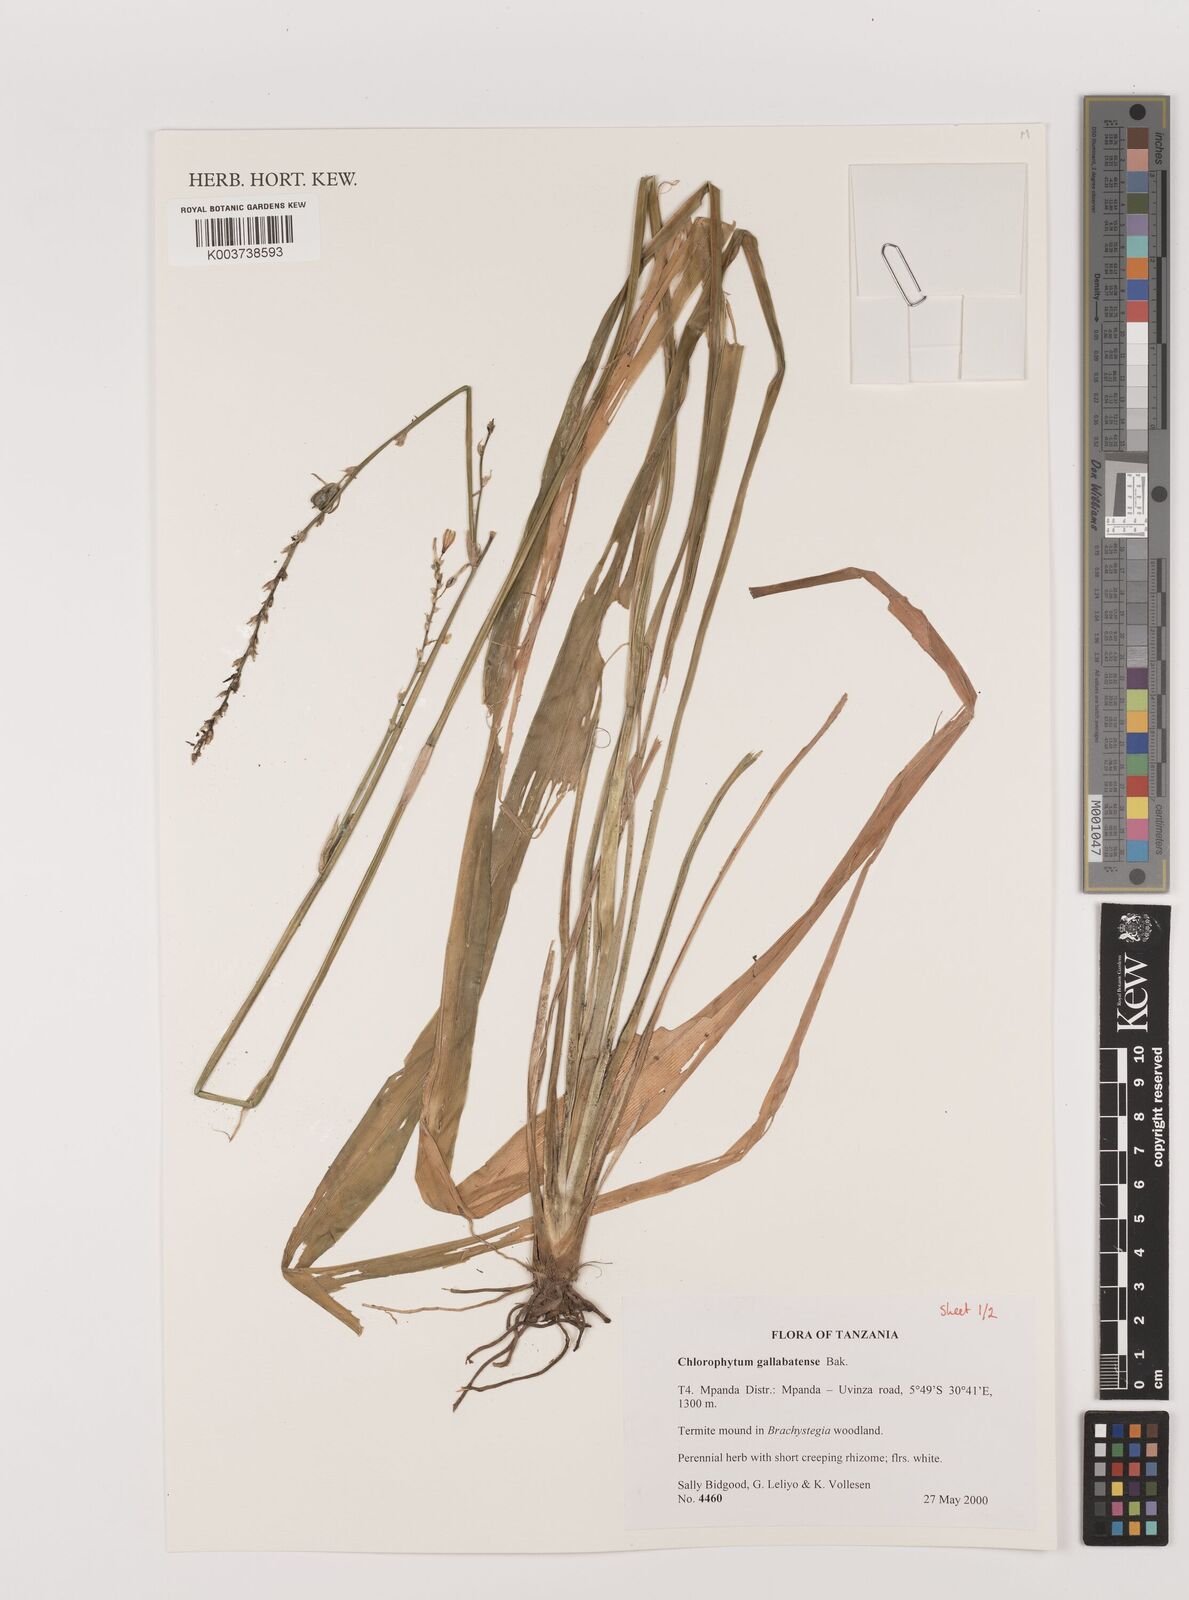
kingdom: Plantae
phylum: Tracheophyta
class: Liliopsida
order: Asparagales
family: Asparagaceae
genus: Chlorophytum
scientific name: Chlorophytum gallabatense
